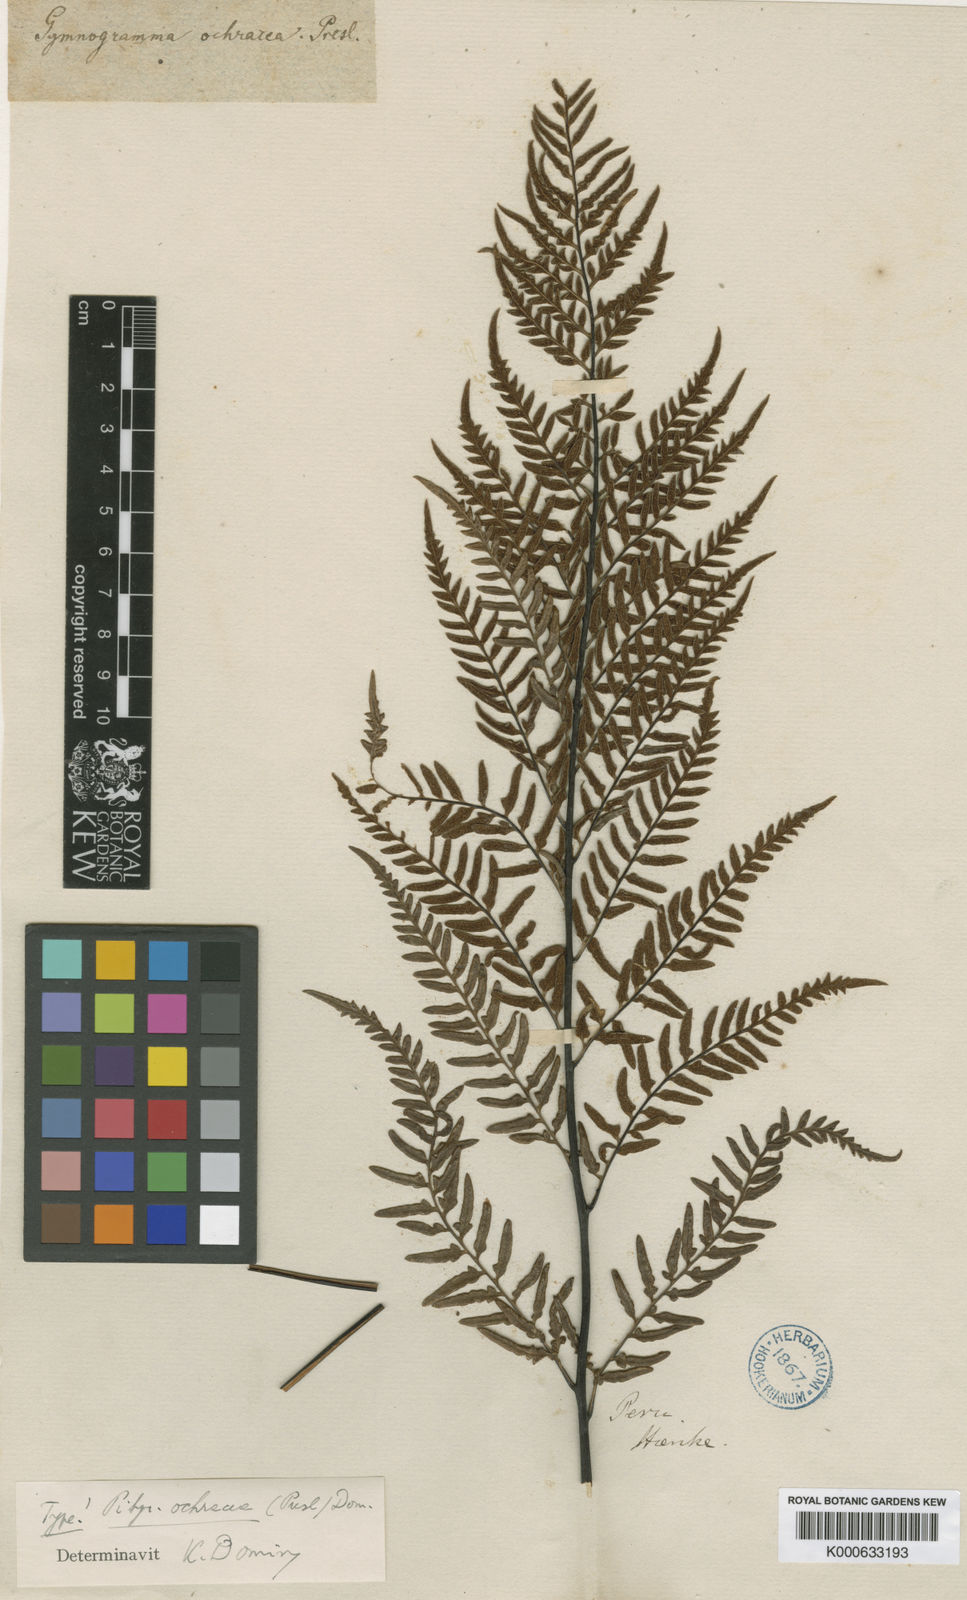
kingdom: Plantae
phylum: Tracheophyta
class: Polypodiopsida
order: Polypodiales
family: Pteridaceae
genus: Pityrogramma
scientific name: Pityrogramma ochracea
